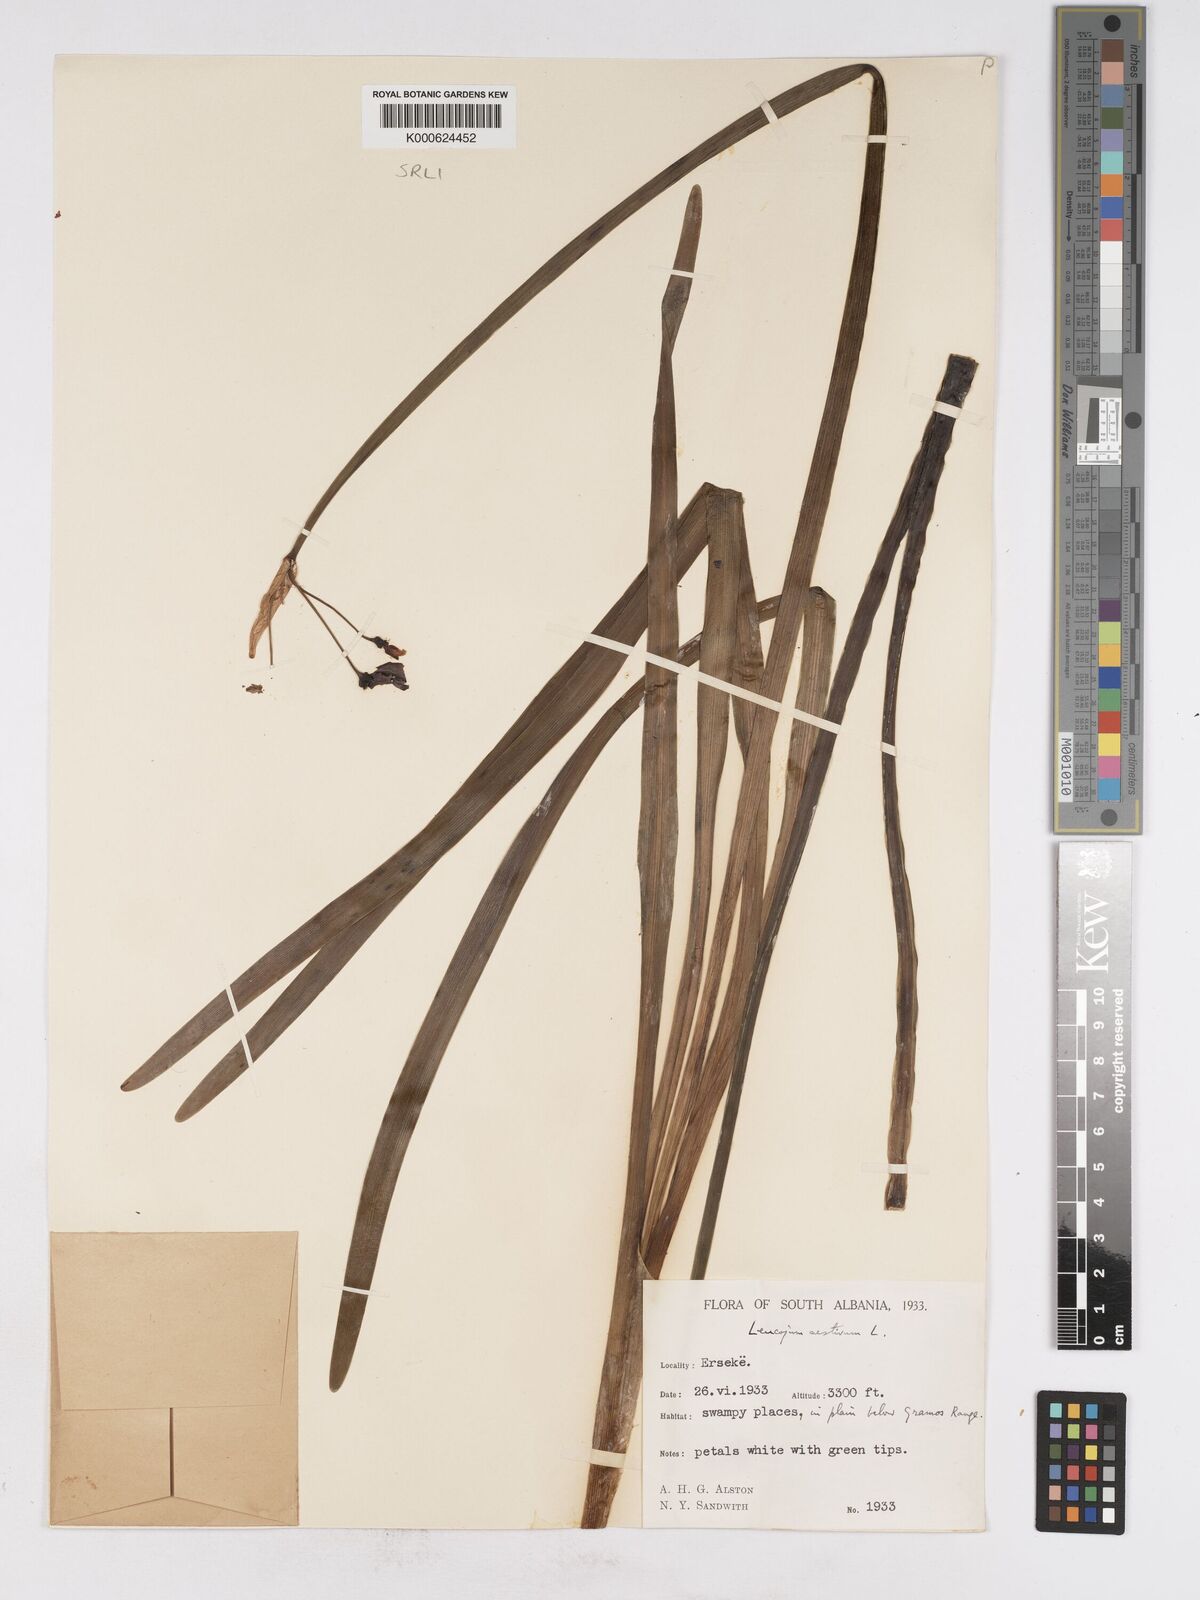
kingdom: Plantae
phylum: Tracheophyta
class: Liliopsida
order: Asparagales
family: Amaryllidaceae
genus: Leucojum
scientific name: Leucojum aestivum
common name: Summer snowflake
